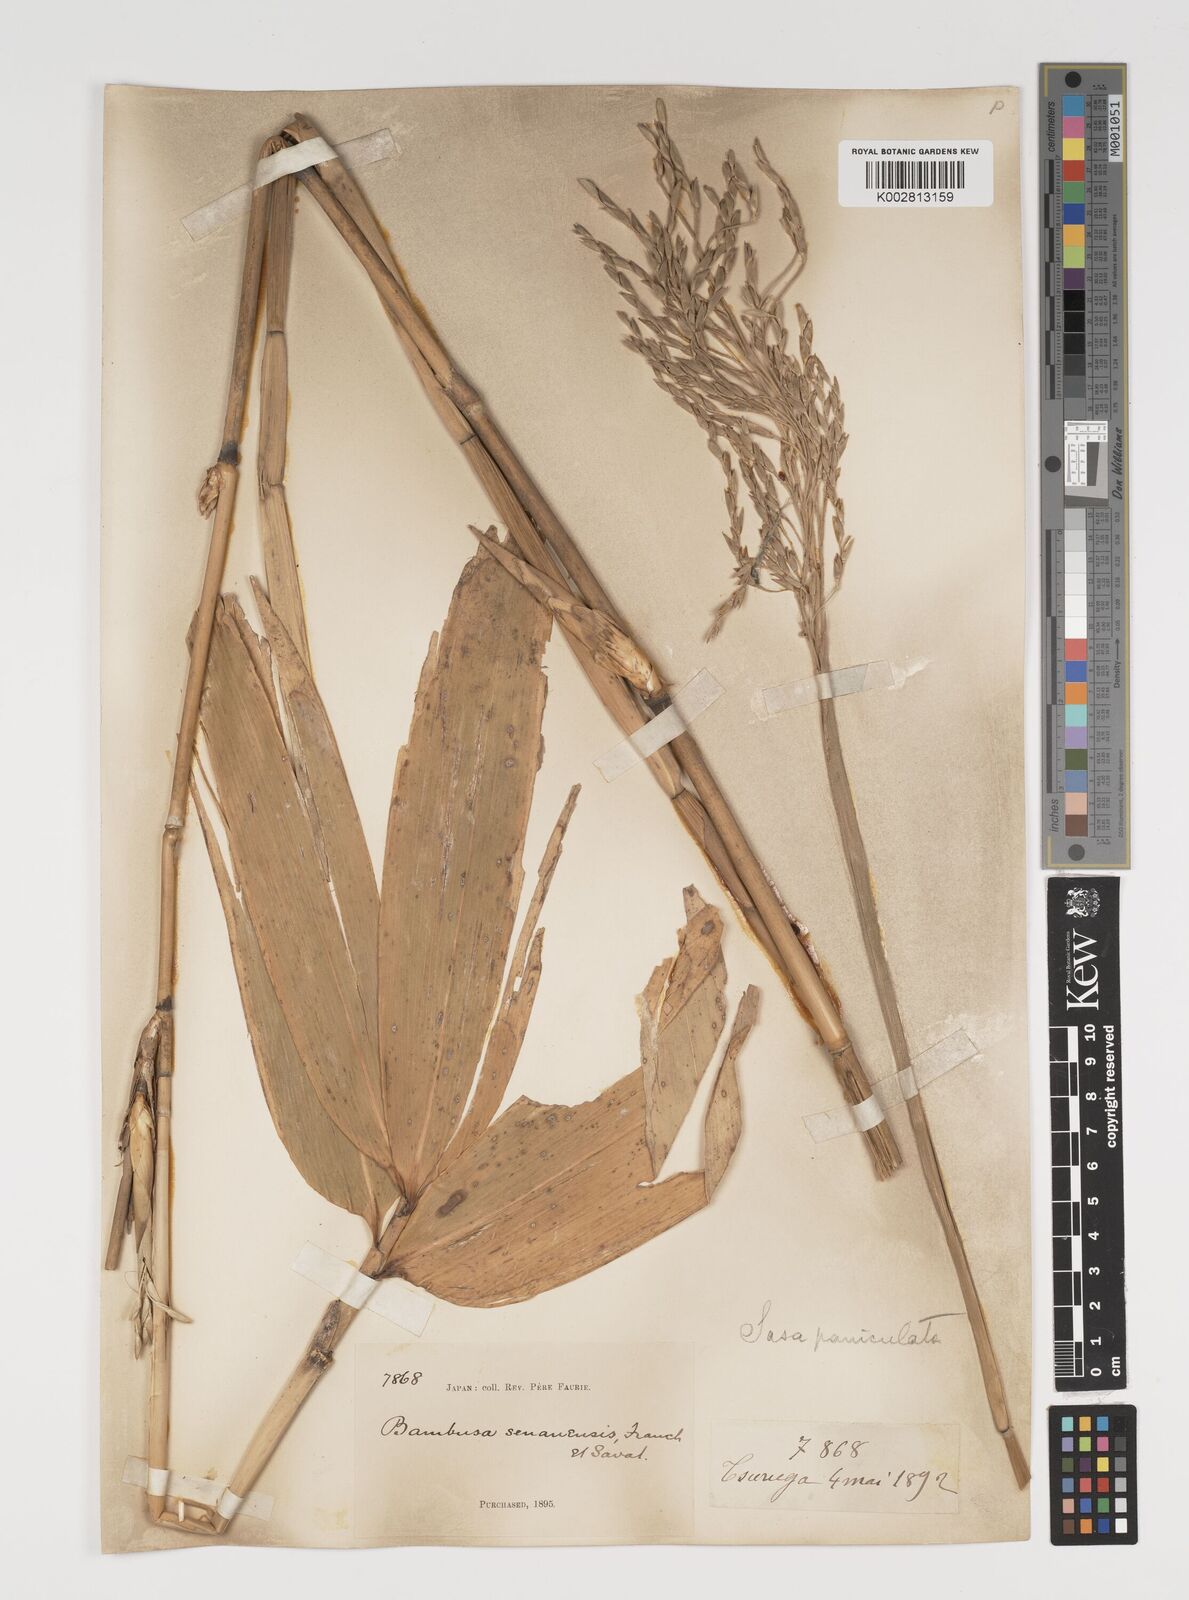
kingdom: Plantae
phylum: Tracheophyta
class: Liliopsida
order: Poales
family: Poaceae
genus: Sasa
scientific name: Sasa palmata
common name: Broad-leaved bamboo
